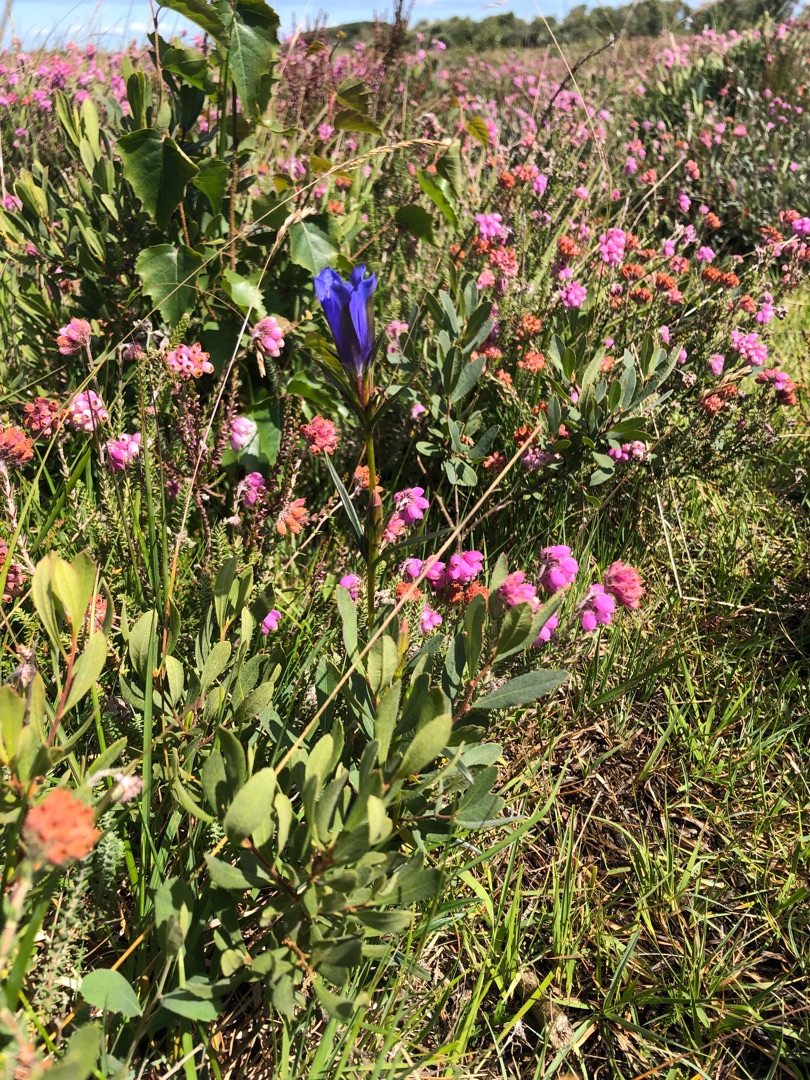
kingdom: Plantae
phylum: Tracheophyta
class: Magnoliopsida
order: Gentianales
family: Gentianaceae
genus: Gentiana
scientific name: Gentiana pneumonanthe
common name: Klokke-ensian
